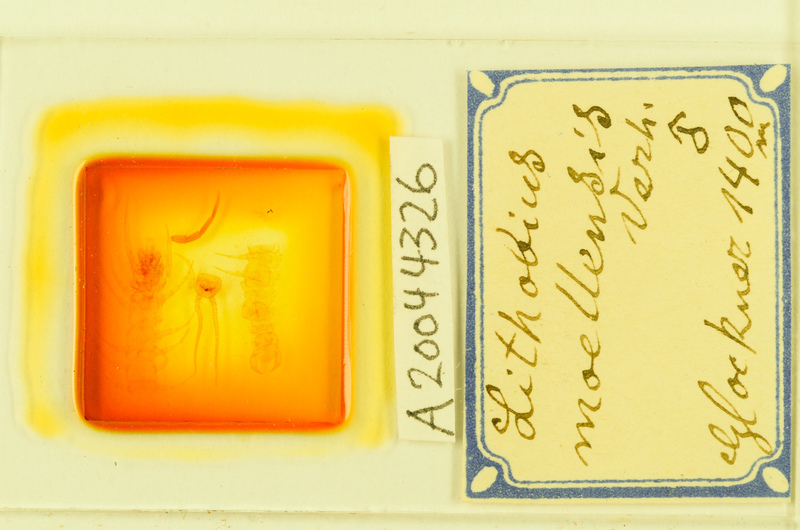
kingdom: Animalia
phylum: Arthropoda
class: Chilopoda
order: Lithobiomorpha
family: Lithobiidae
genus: Lithobius
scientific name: Lithobius moellensis
